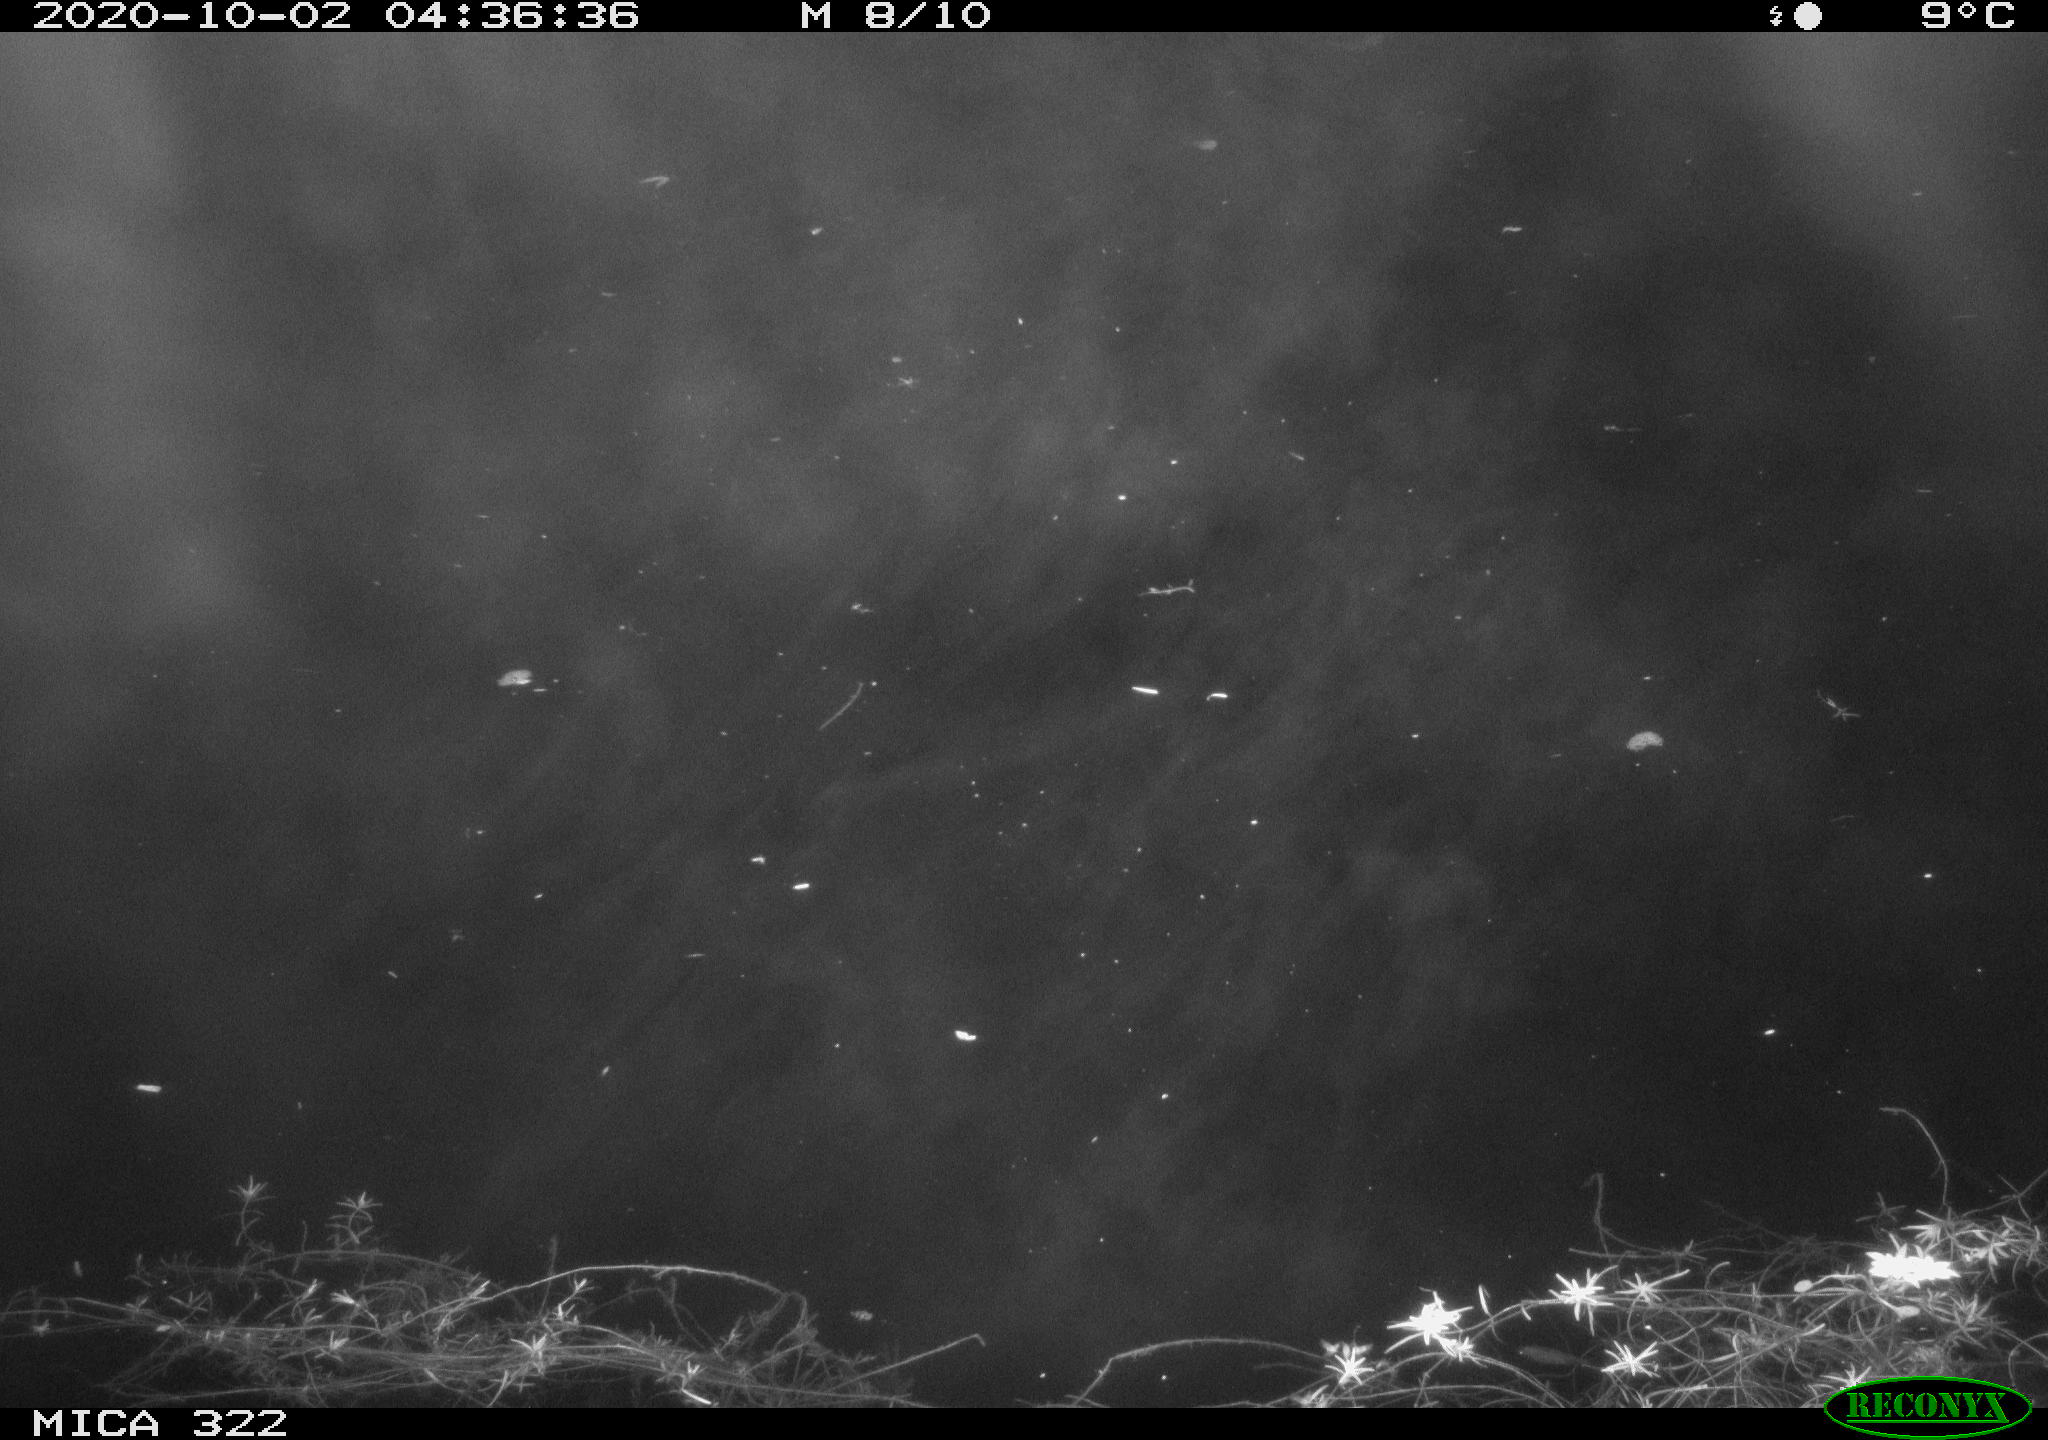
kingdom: Animalia
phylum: Chordata
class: Mammalia
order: Rodentia
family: Muridae
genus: Rattus
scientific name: Rattus norvegicus
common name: Brown rat
